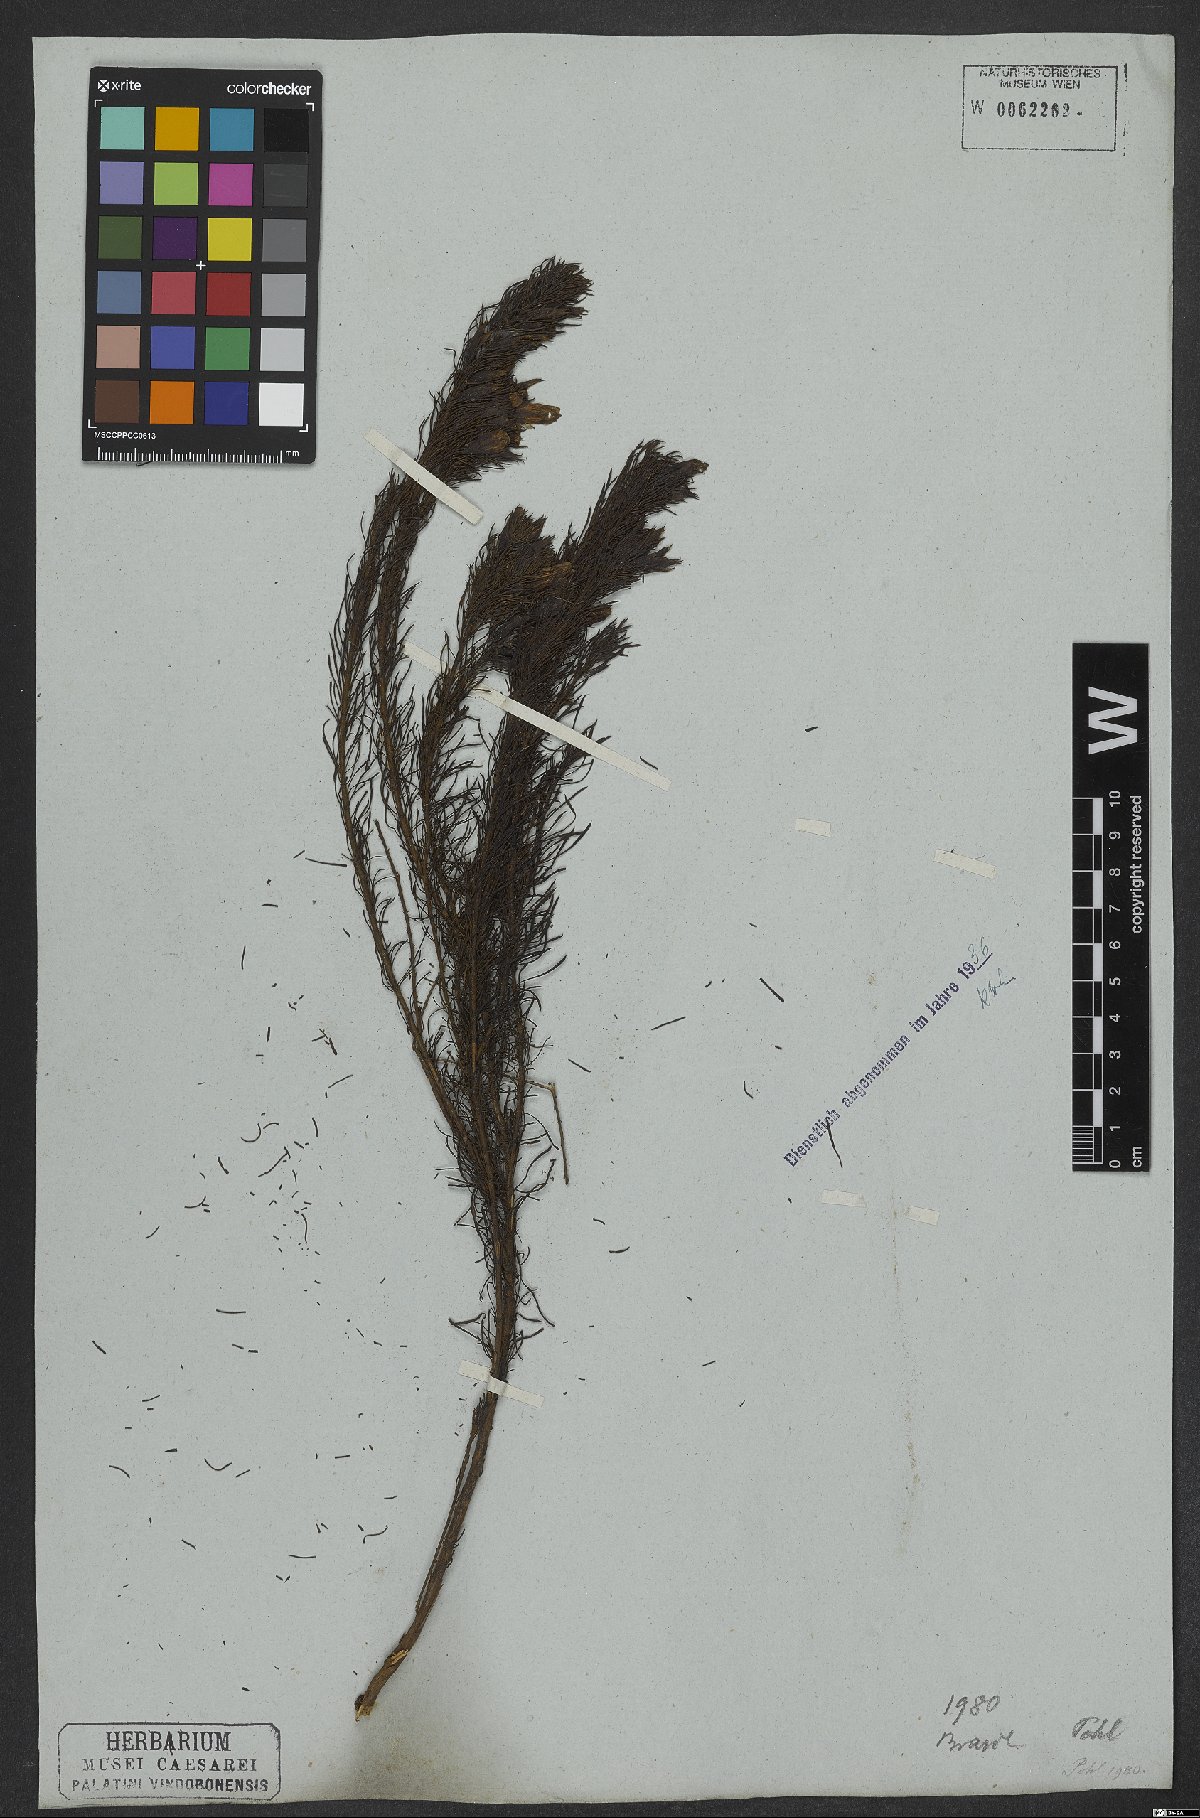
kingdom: Plantae
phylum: Tracheophyta
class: Magnoliopsida
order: Solanales
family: Convolvulaceae
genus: Distimake
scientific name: Distimake ericoides
